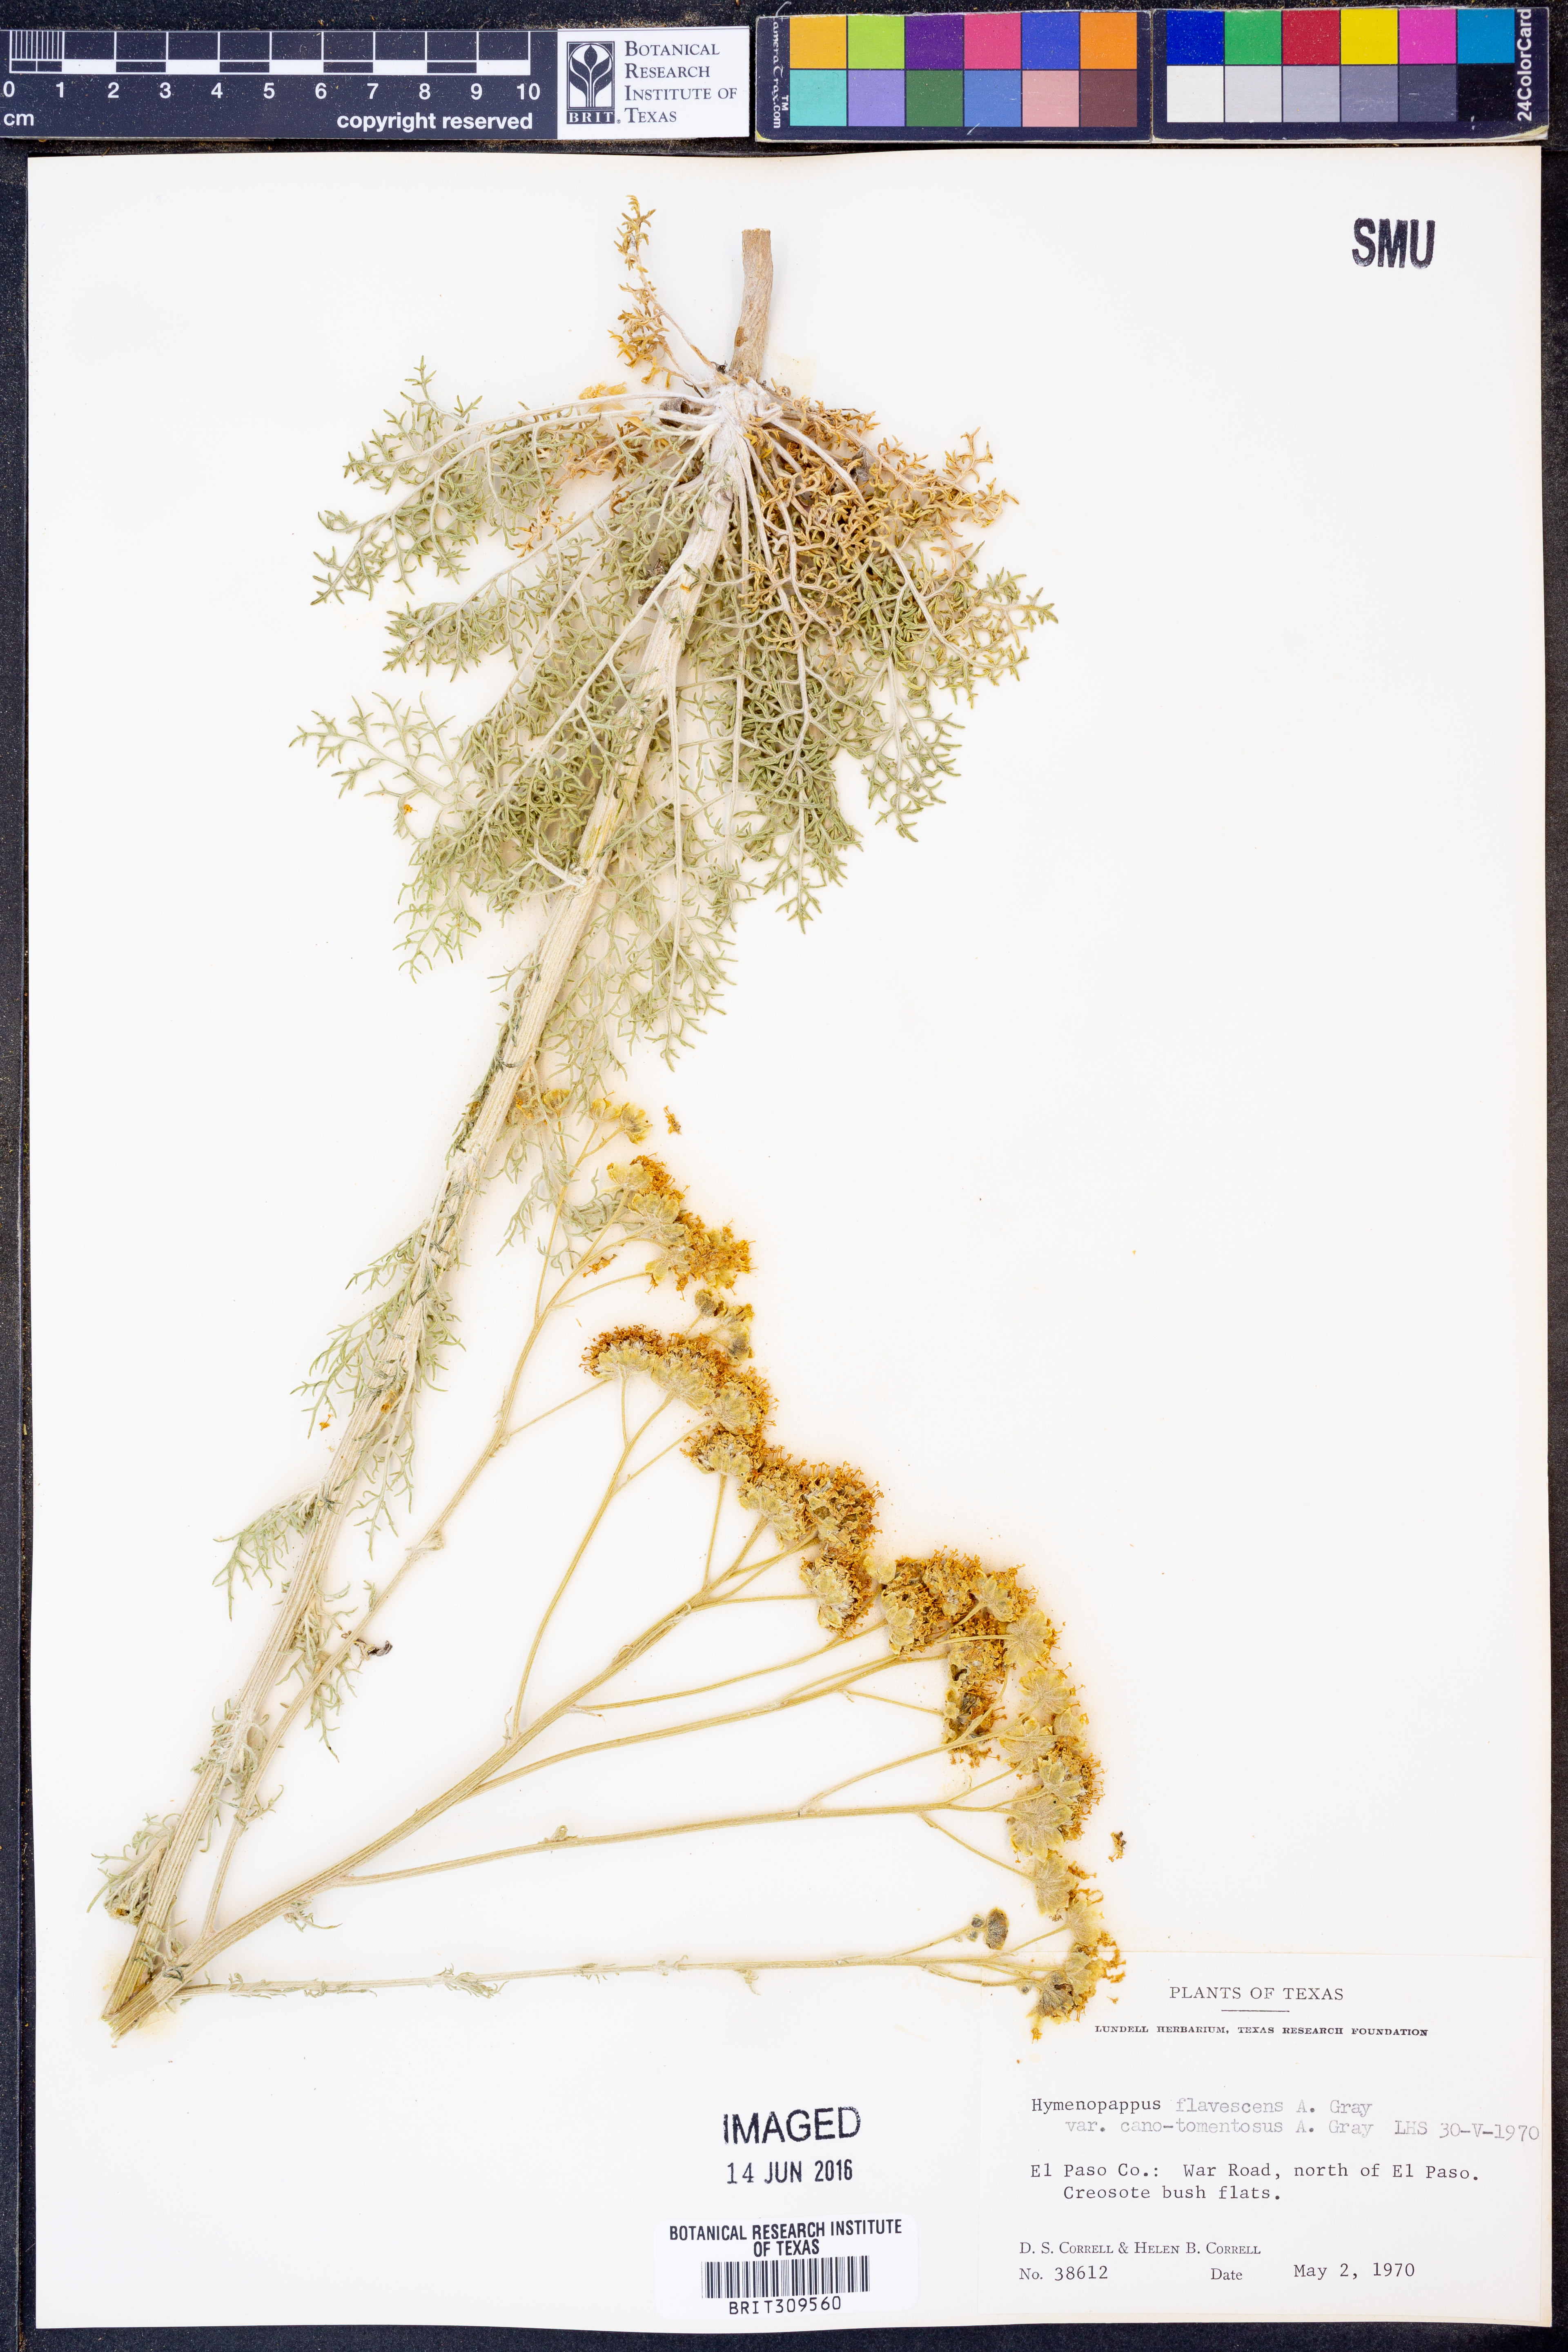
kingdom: Plantae
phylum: Tracheophyta
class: Magnoliopsida
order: Asterales
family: Asteraceae
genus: Hymenopappus
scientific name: Hymenopappus flavescens
